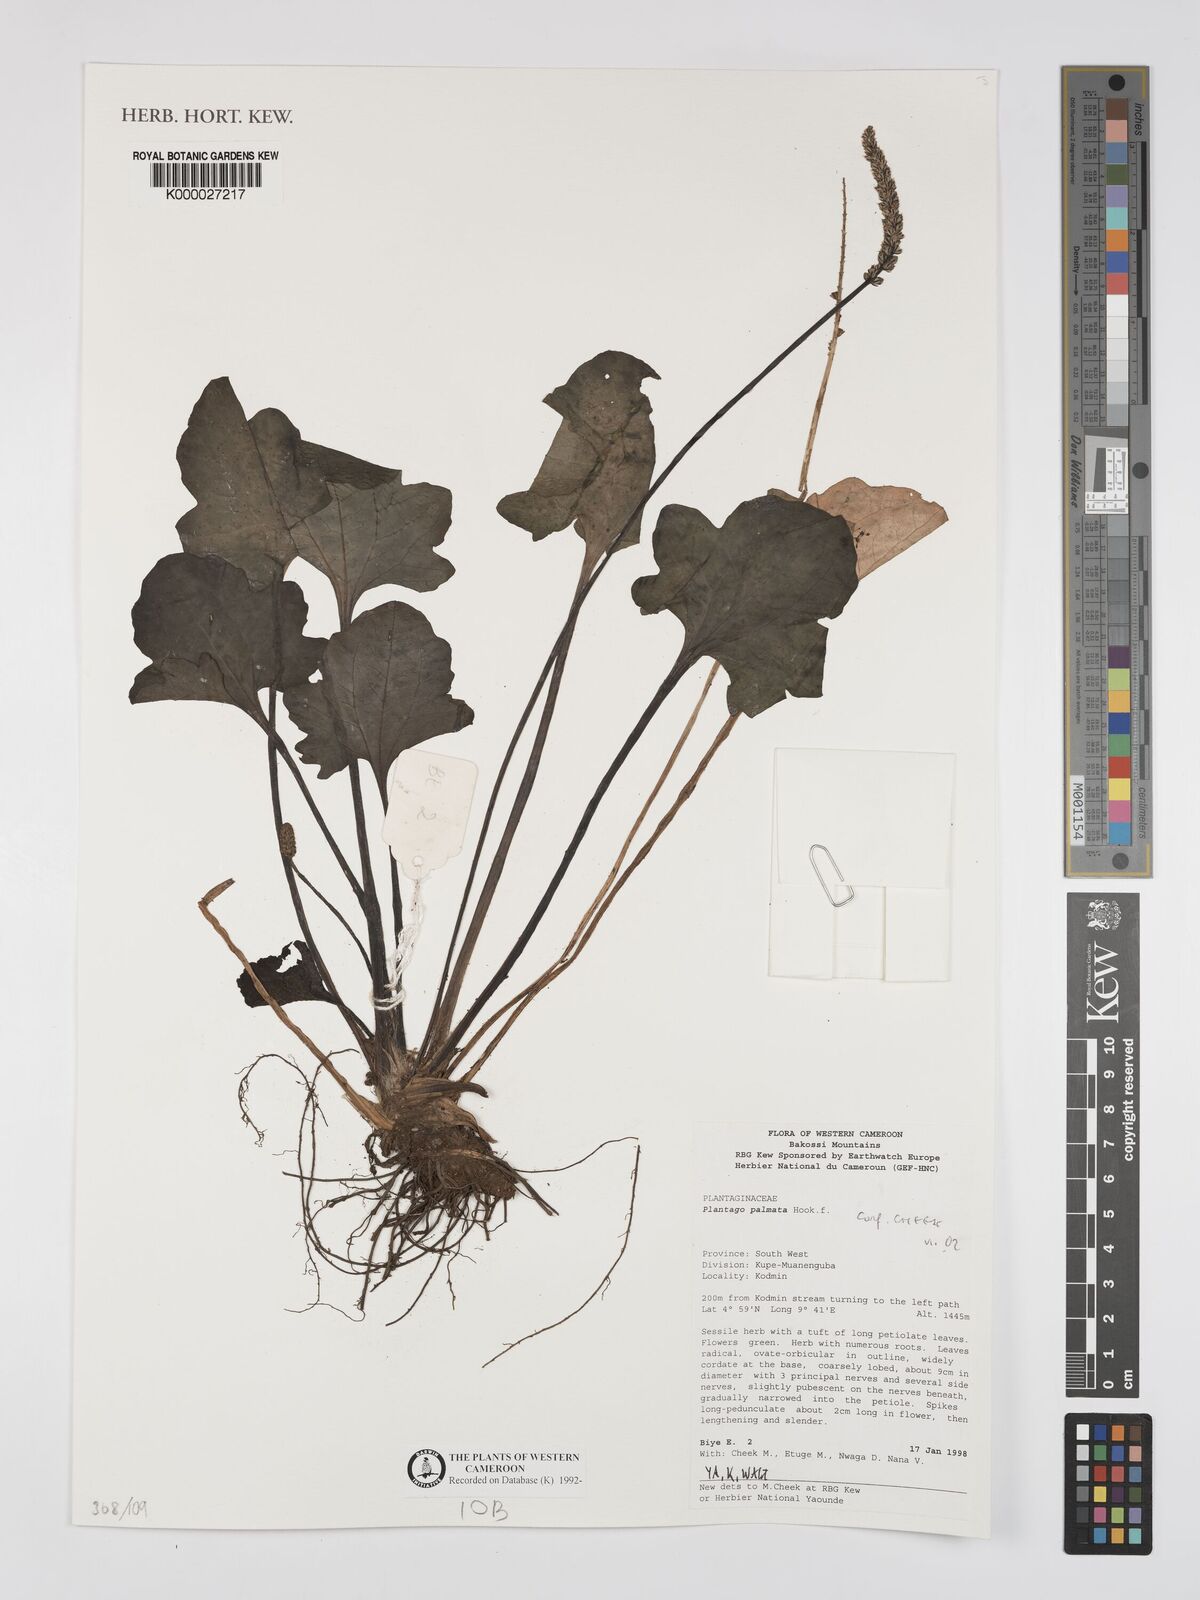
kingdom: Plantae
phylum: Tracheophyta
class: Magnoliopsida
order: Lamiales
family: Plantaginaceae
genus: Plantago
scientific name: Plantago palmata
